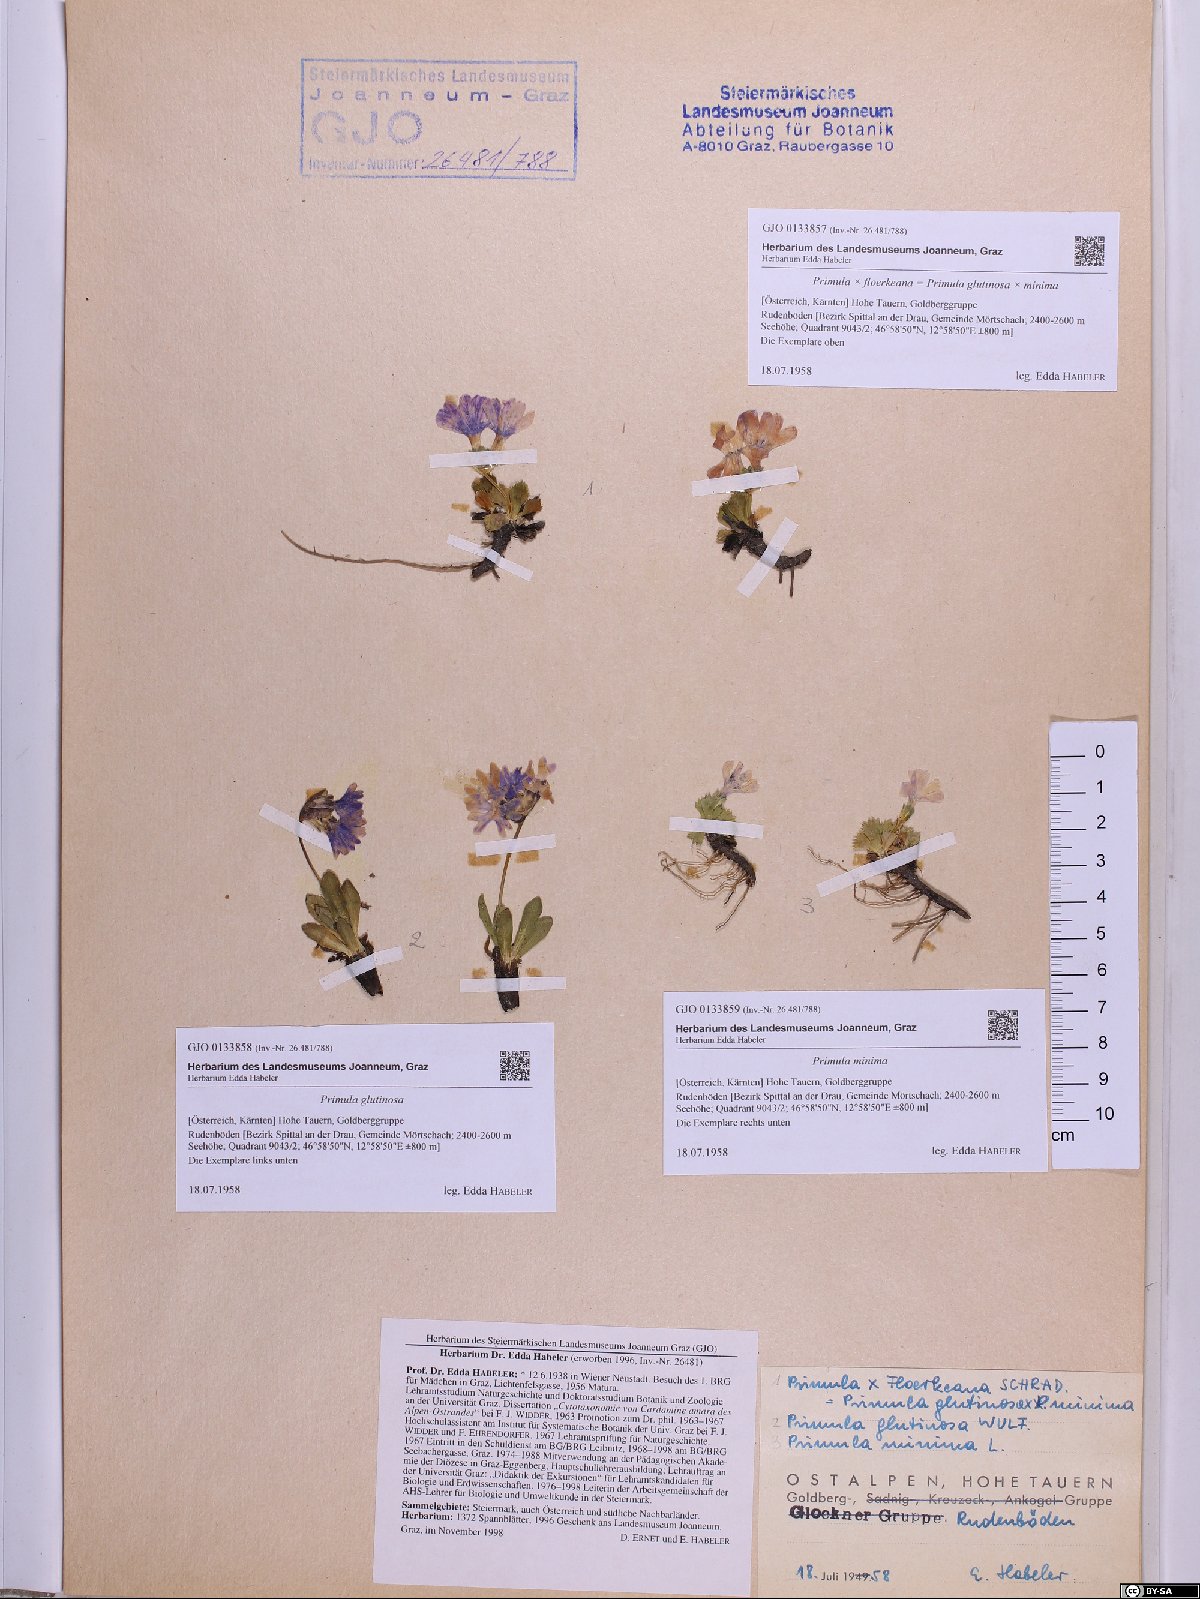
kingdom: Plantae
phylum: Tracheophyta
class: Magnoliopsida
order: Ericales
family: Primulaceae
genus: Primula
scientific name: Primula minima
